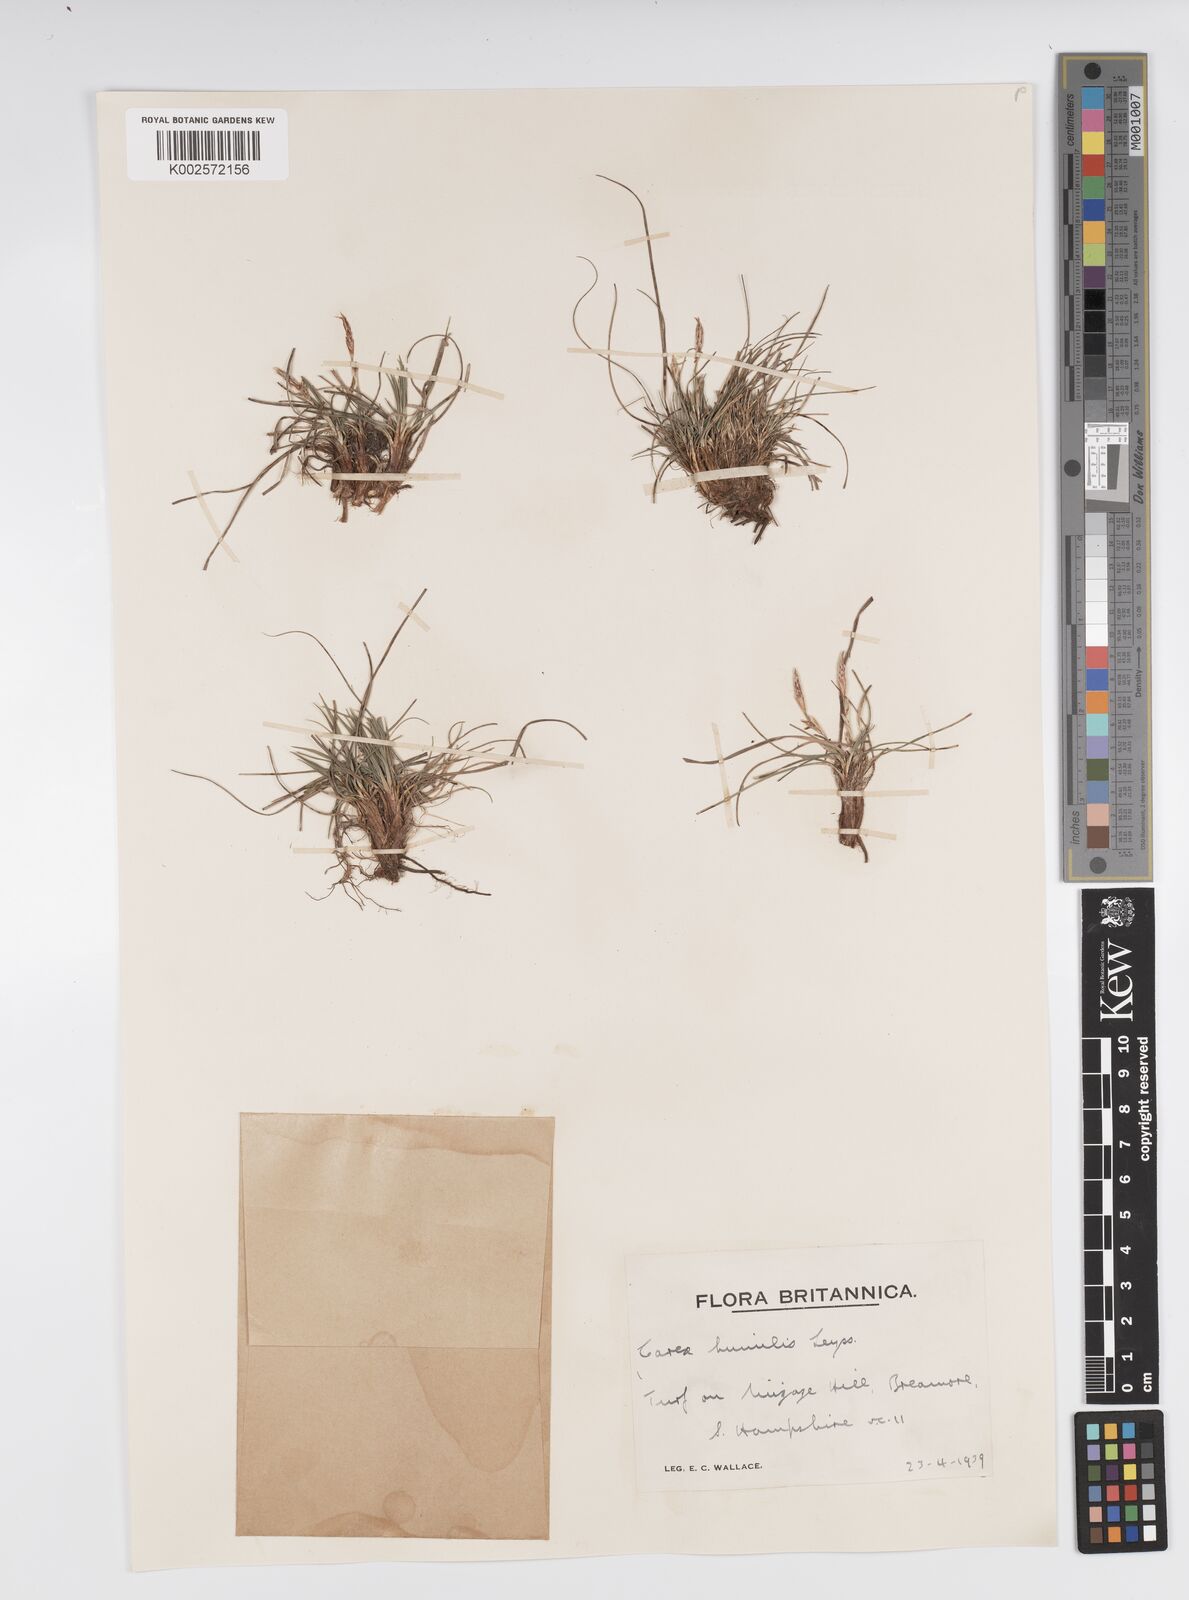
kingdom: Plantae
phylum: Tracheophyta
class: Liliopsida
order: Poales
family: Cyperaceae
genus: Carex
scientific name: Carex humilis
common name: Dwarf sedge
